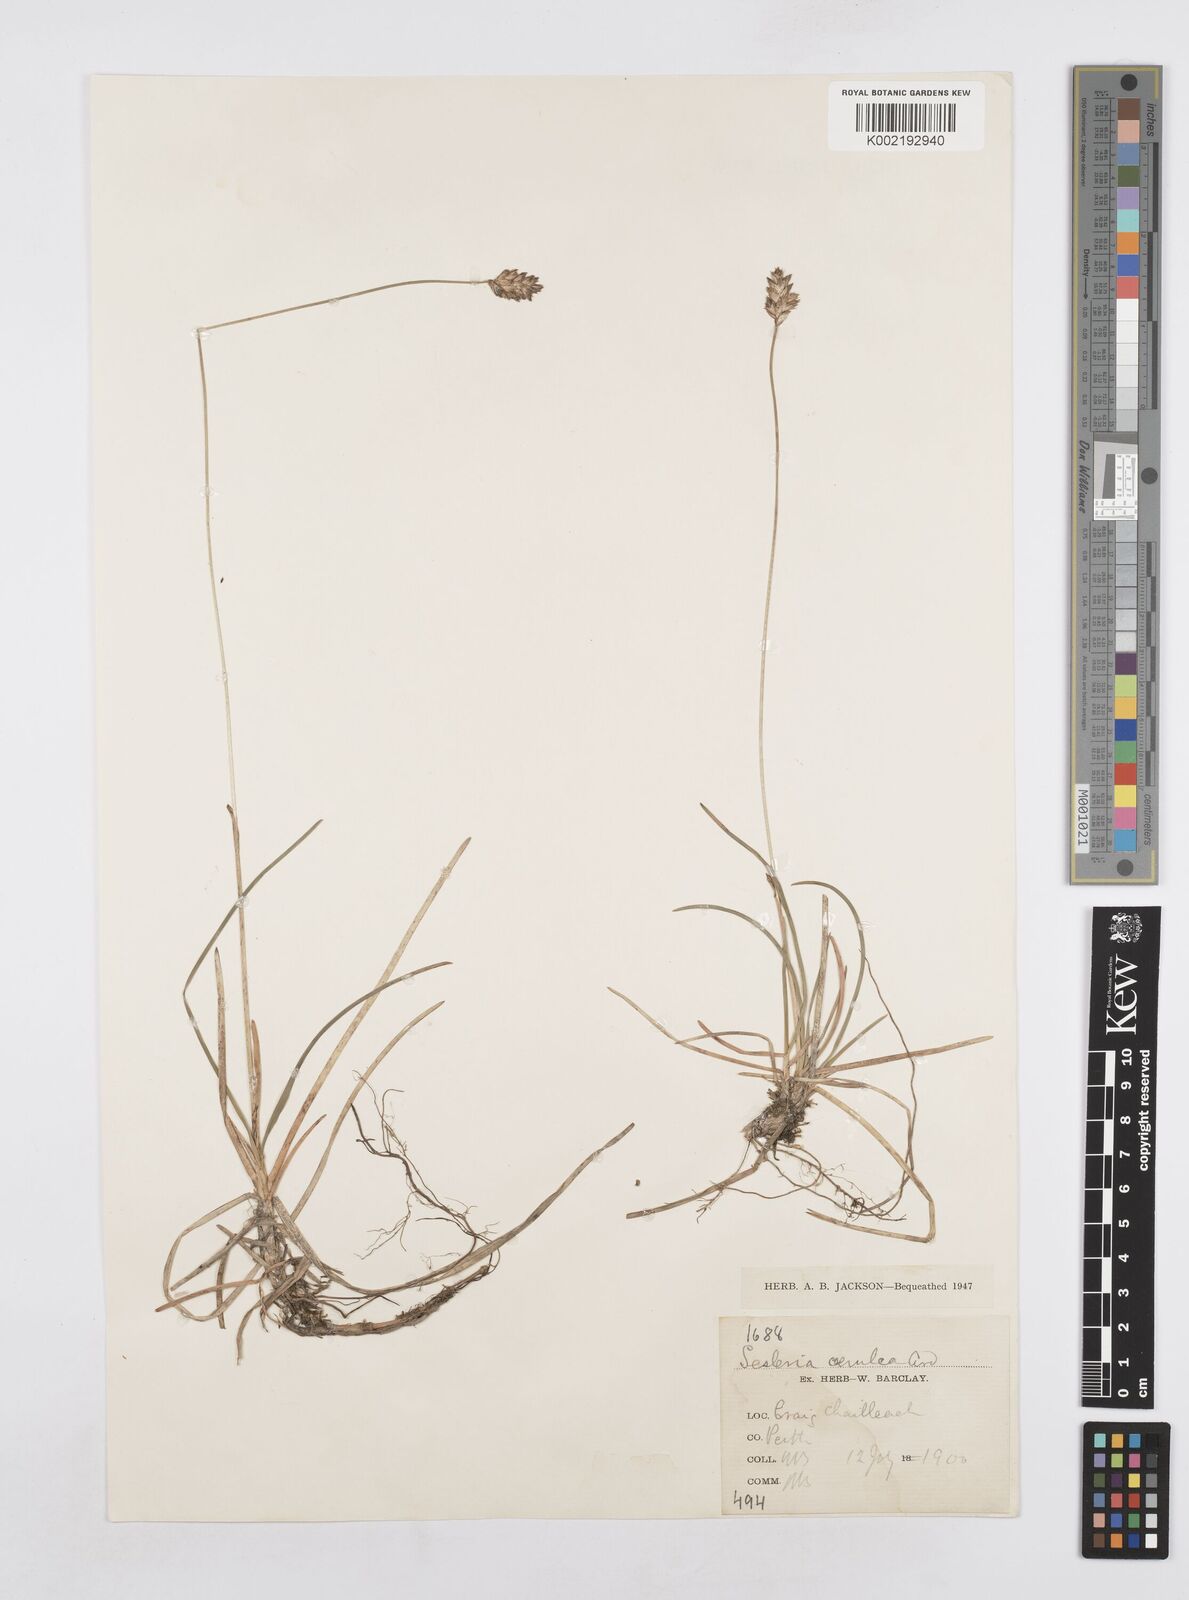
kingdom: Plantae
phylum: Tracheophyta
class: Liliopsida
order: Poales
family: Poaceae
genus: Sesleria
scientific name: Sesleria caerulea
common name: Blue moor-grass
